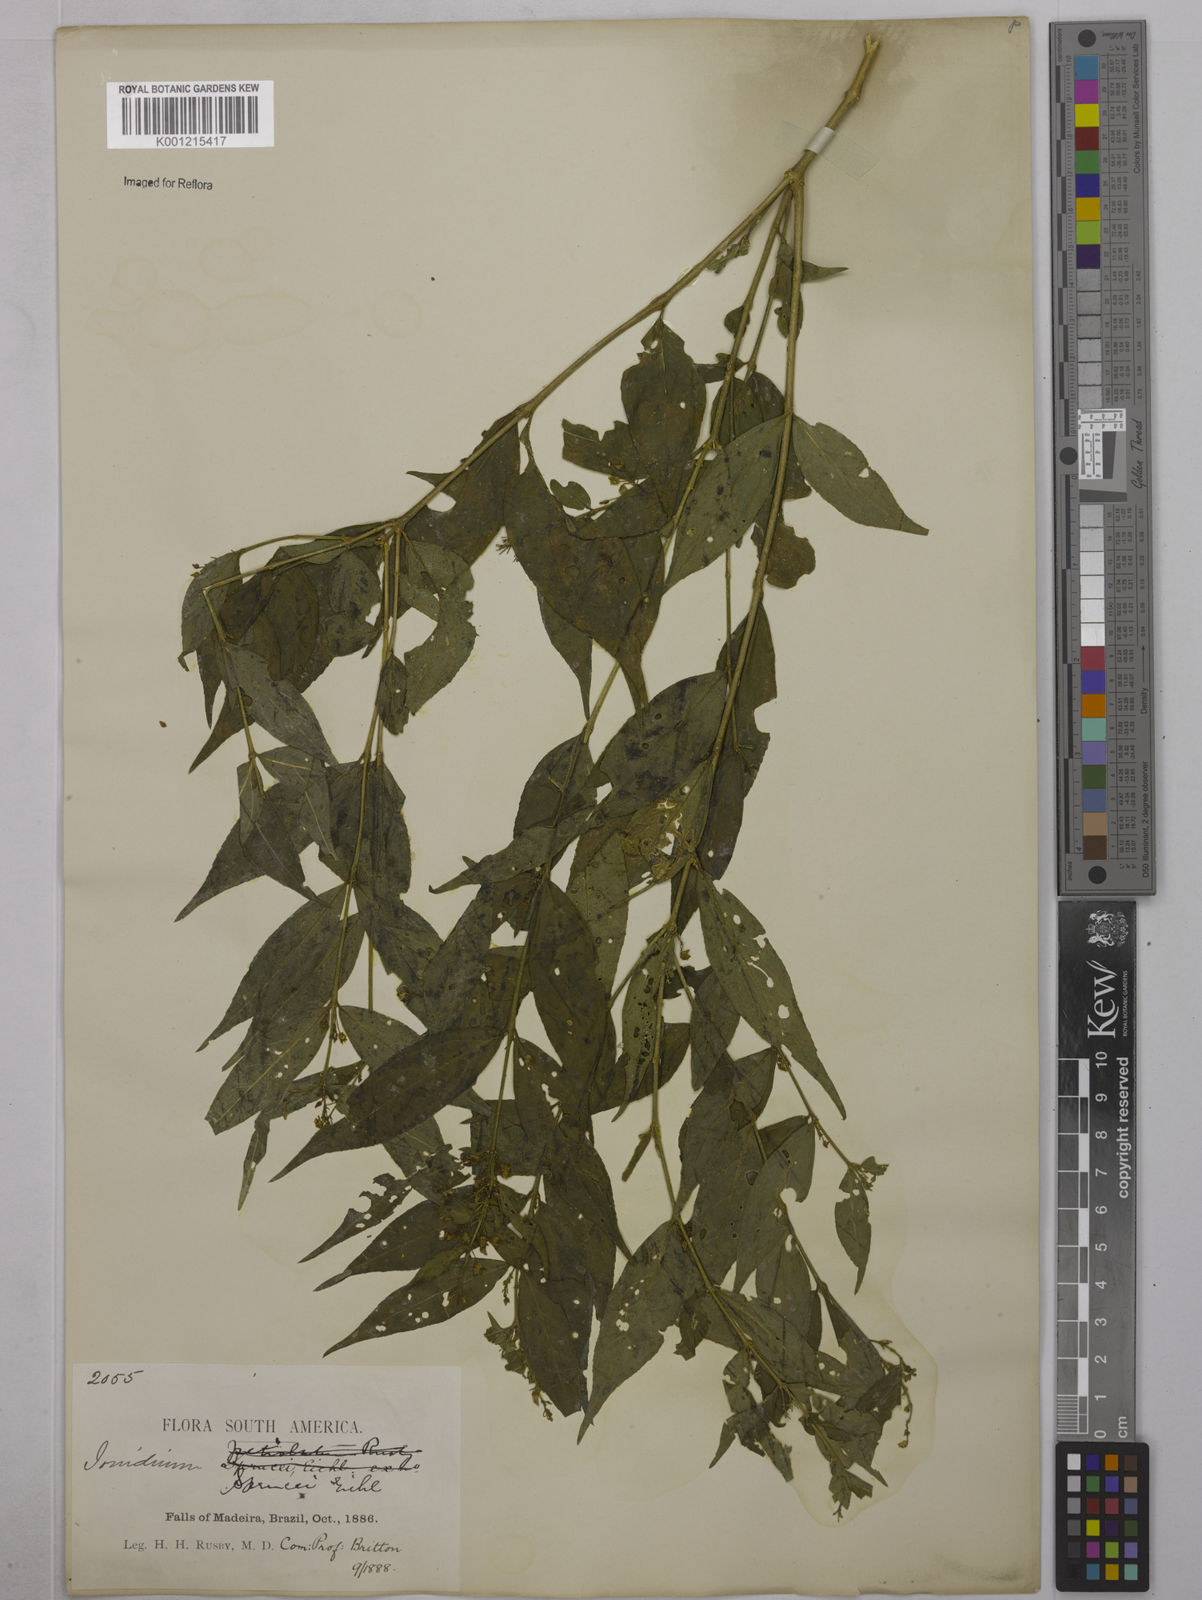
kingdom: Plantae
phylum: Tracheophyta
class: Magnoliopsida
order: Malpighiales
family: Violaceae
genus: Pombalia
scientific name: Pombalia sprucei
